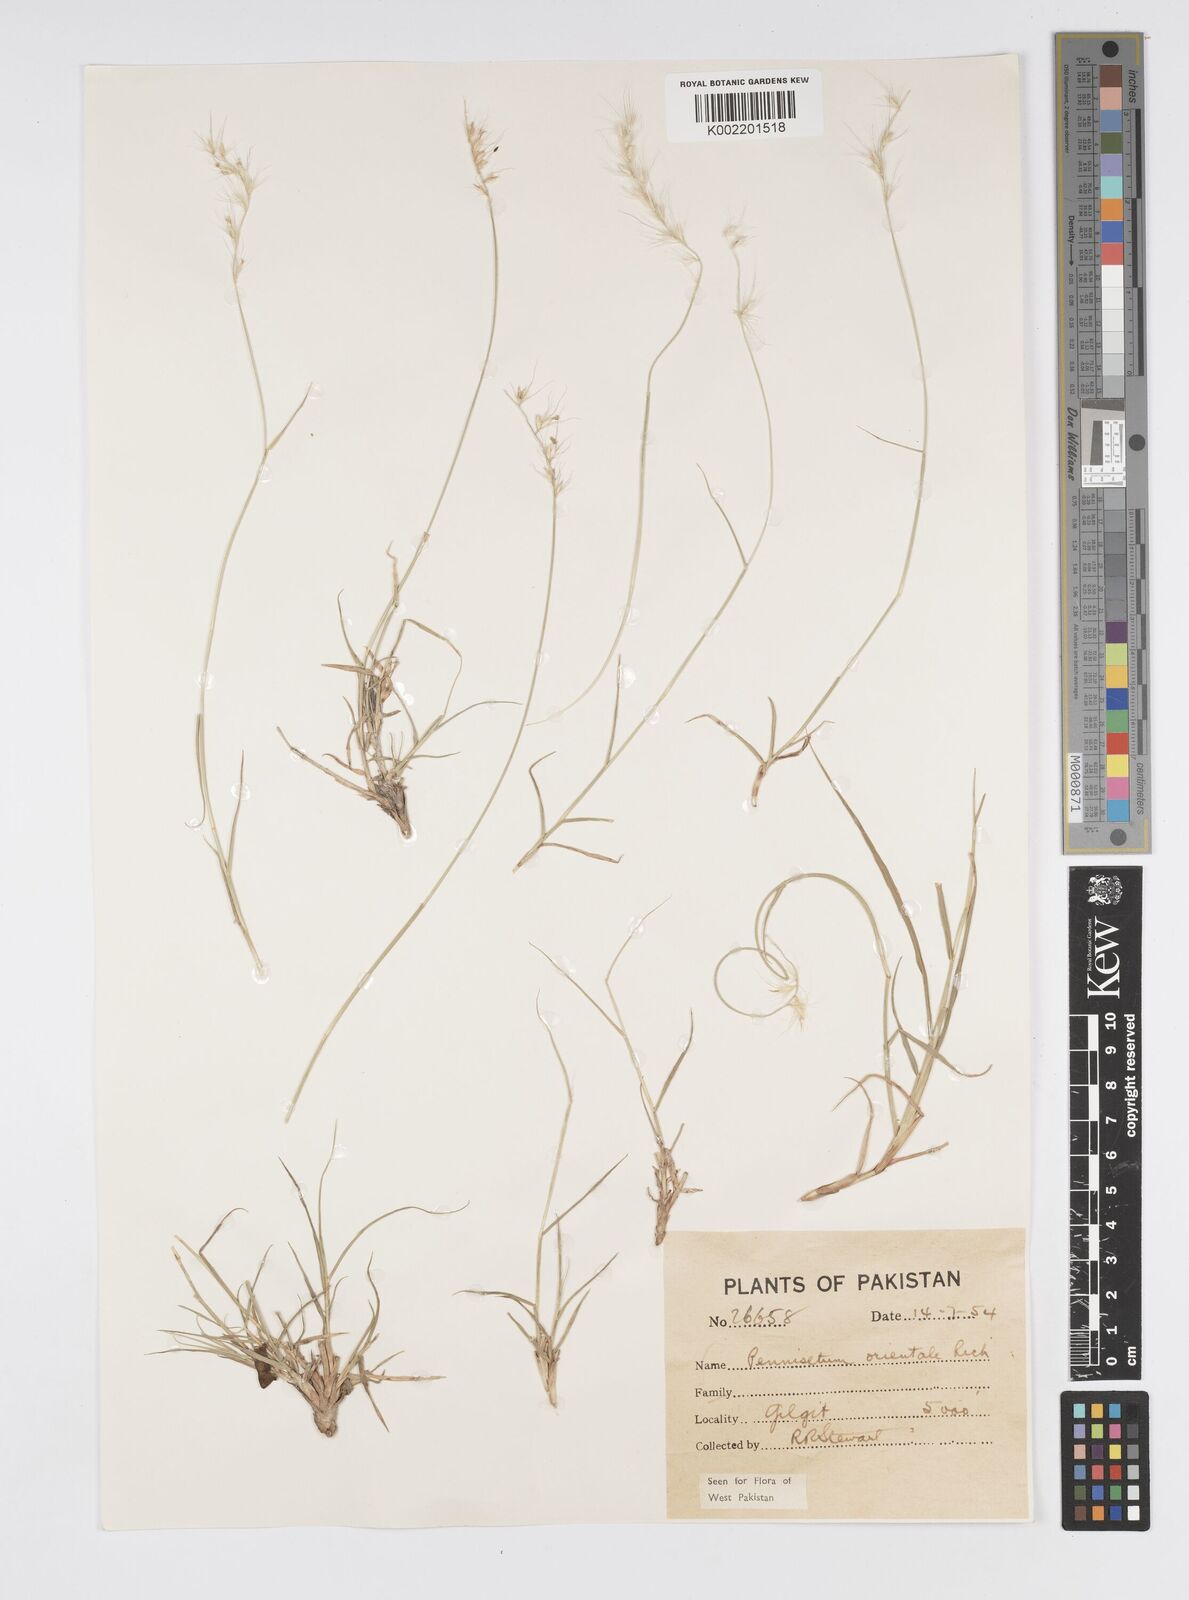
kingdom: Plantae
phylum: Tracheophyta
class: Liliopsida
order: Poales
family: Poaceae
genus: Cenchrus
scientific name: Cenchrus orientalis
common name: Oriental fountain grass
